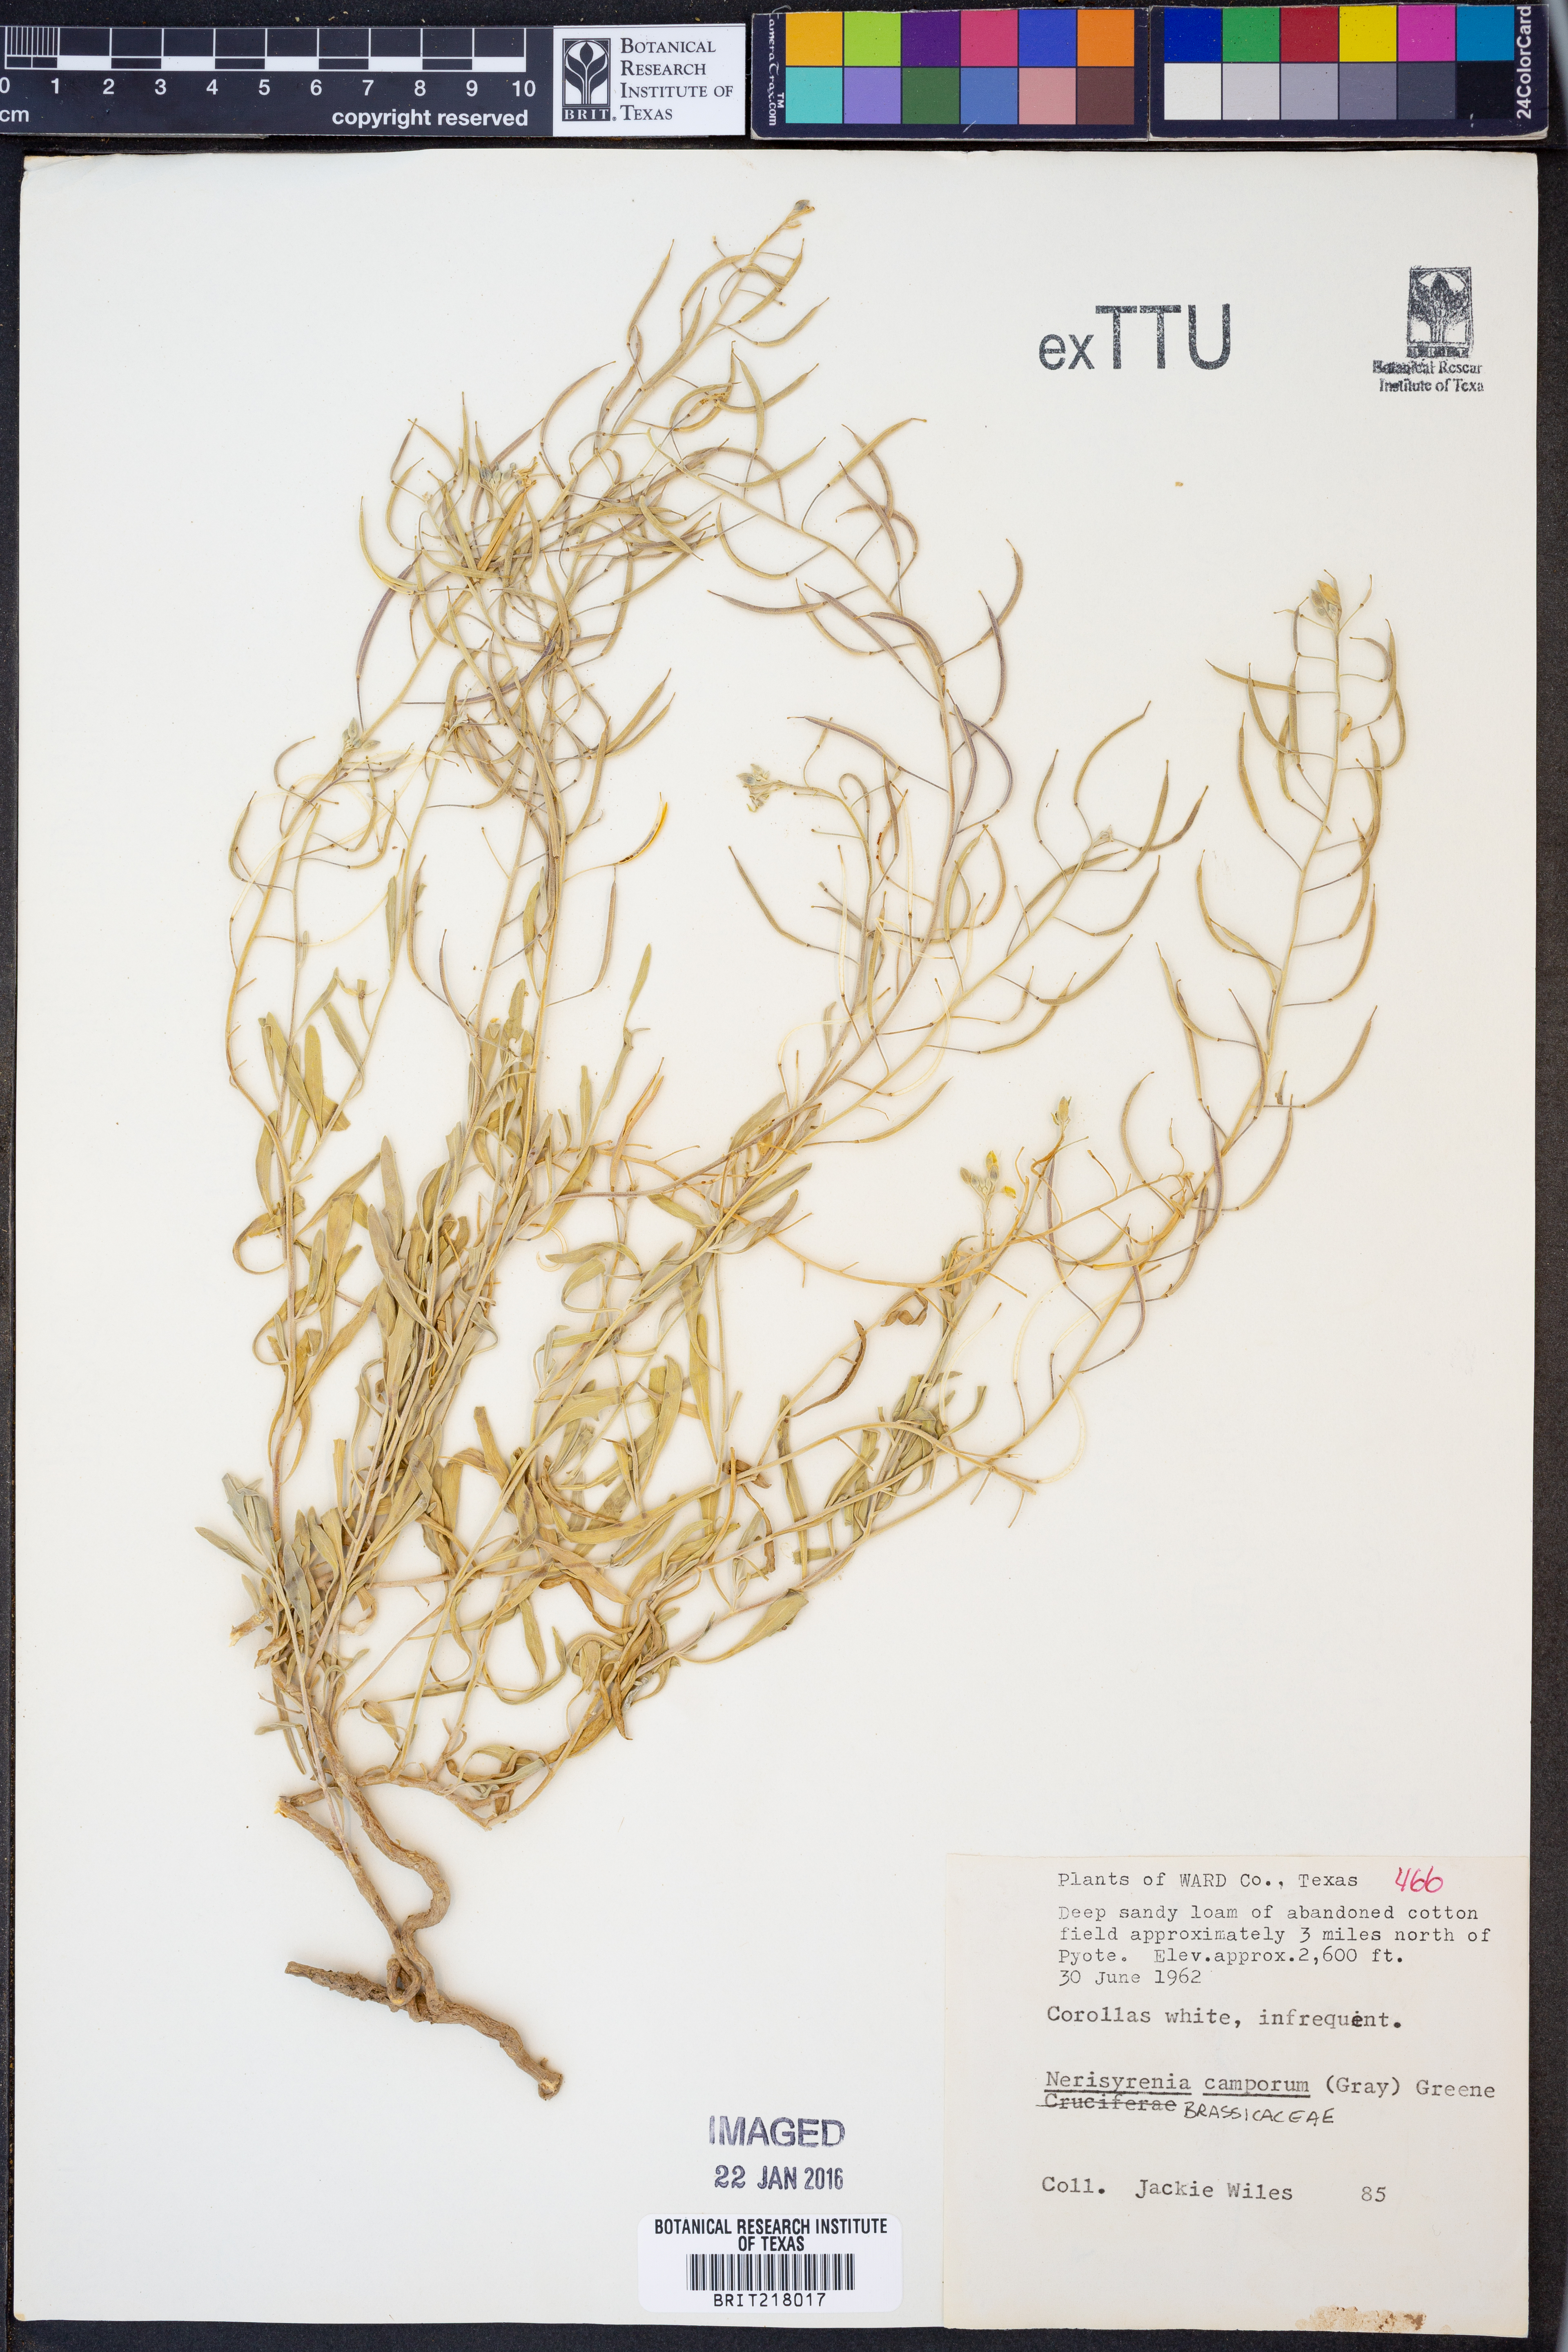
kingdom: Plantae
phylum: Tracheophyta
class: Magnoliopsida
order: Brassicales
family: Brassicaceae
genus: Nerisyrenia
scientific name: Nerisyrenia camporum
